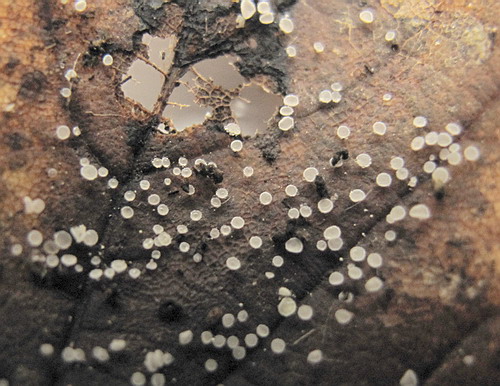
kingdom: Fungi
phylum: Ascomycota
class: Leotiomycetes
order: Helotiales
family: Lachnaceae
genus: Lachnum
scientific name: Lachnum rhytismatis
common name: blad-frynseskive
